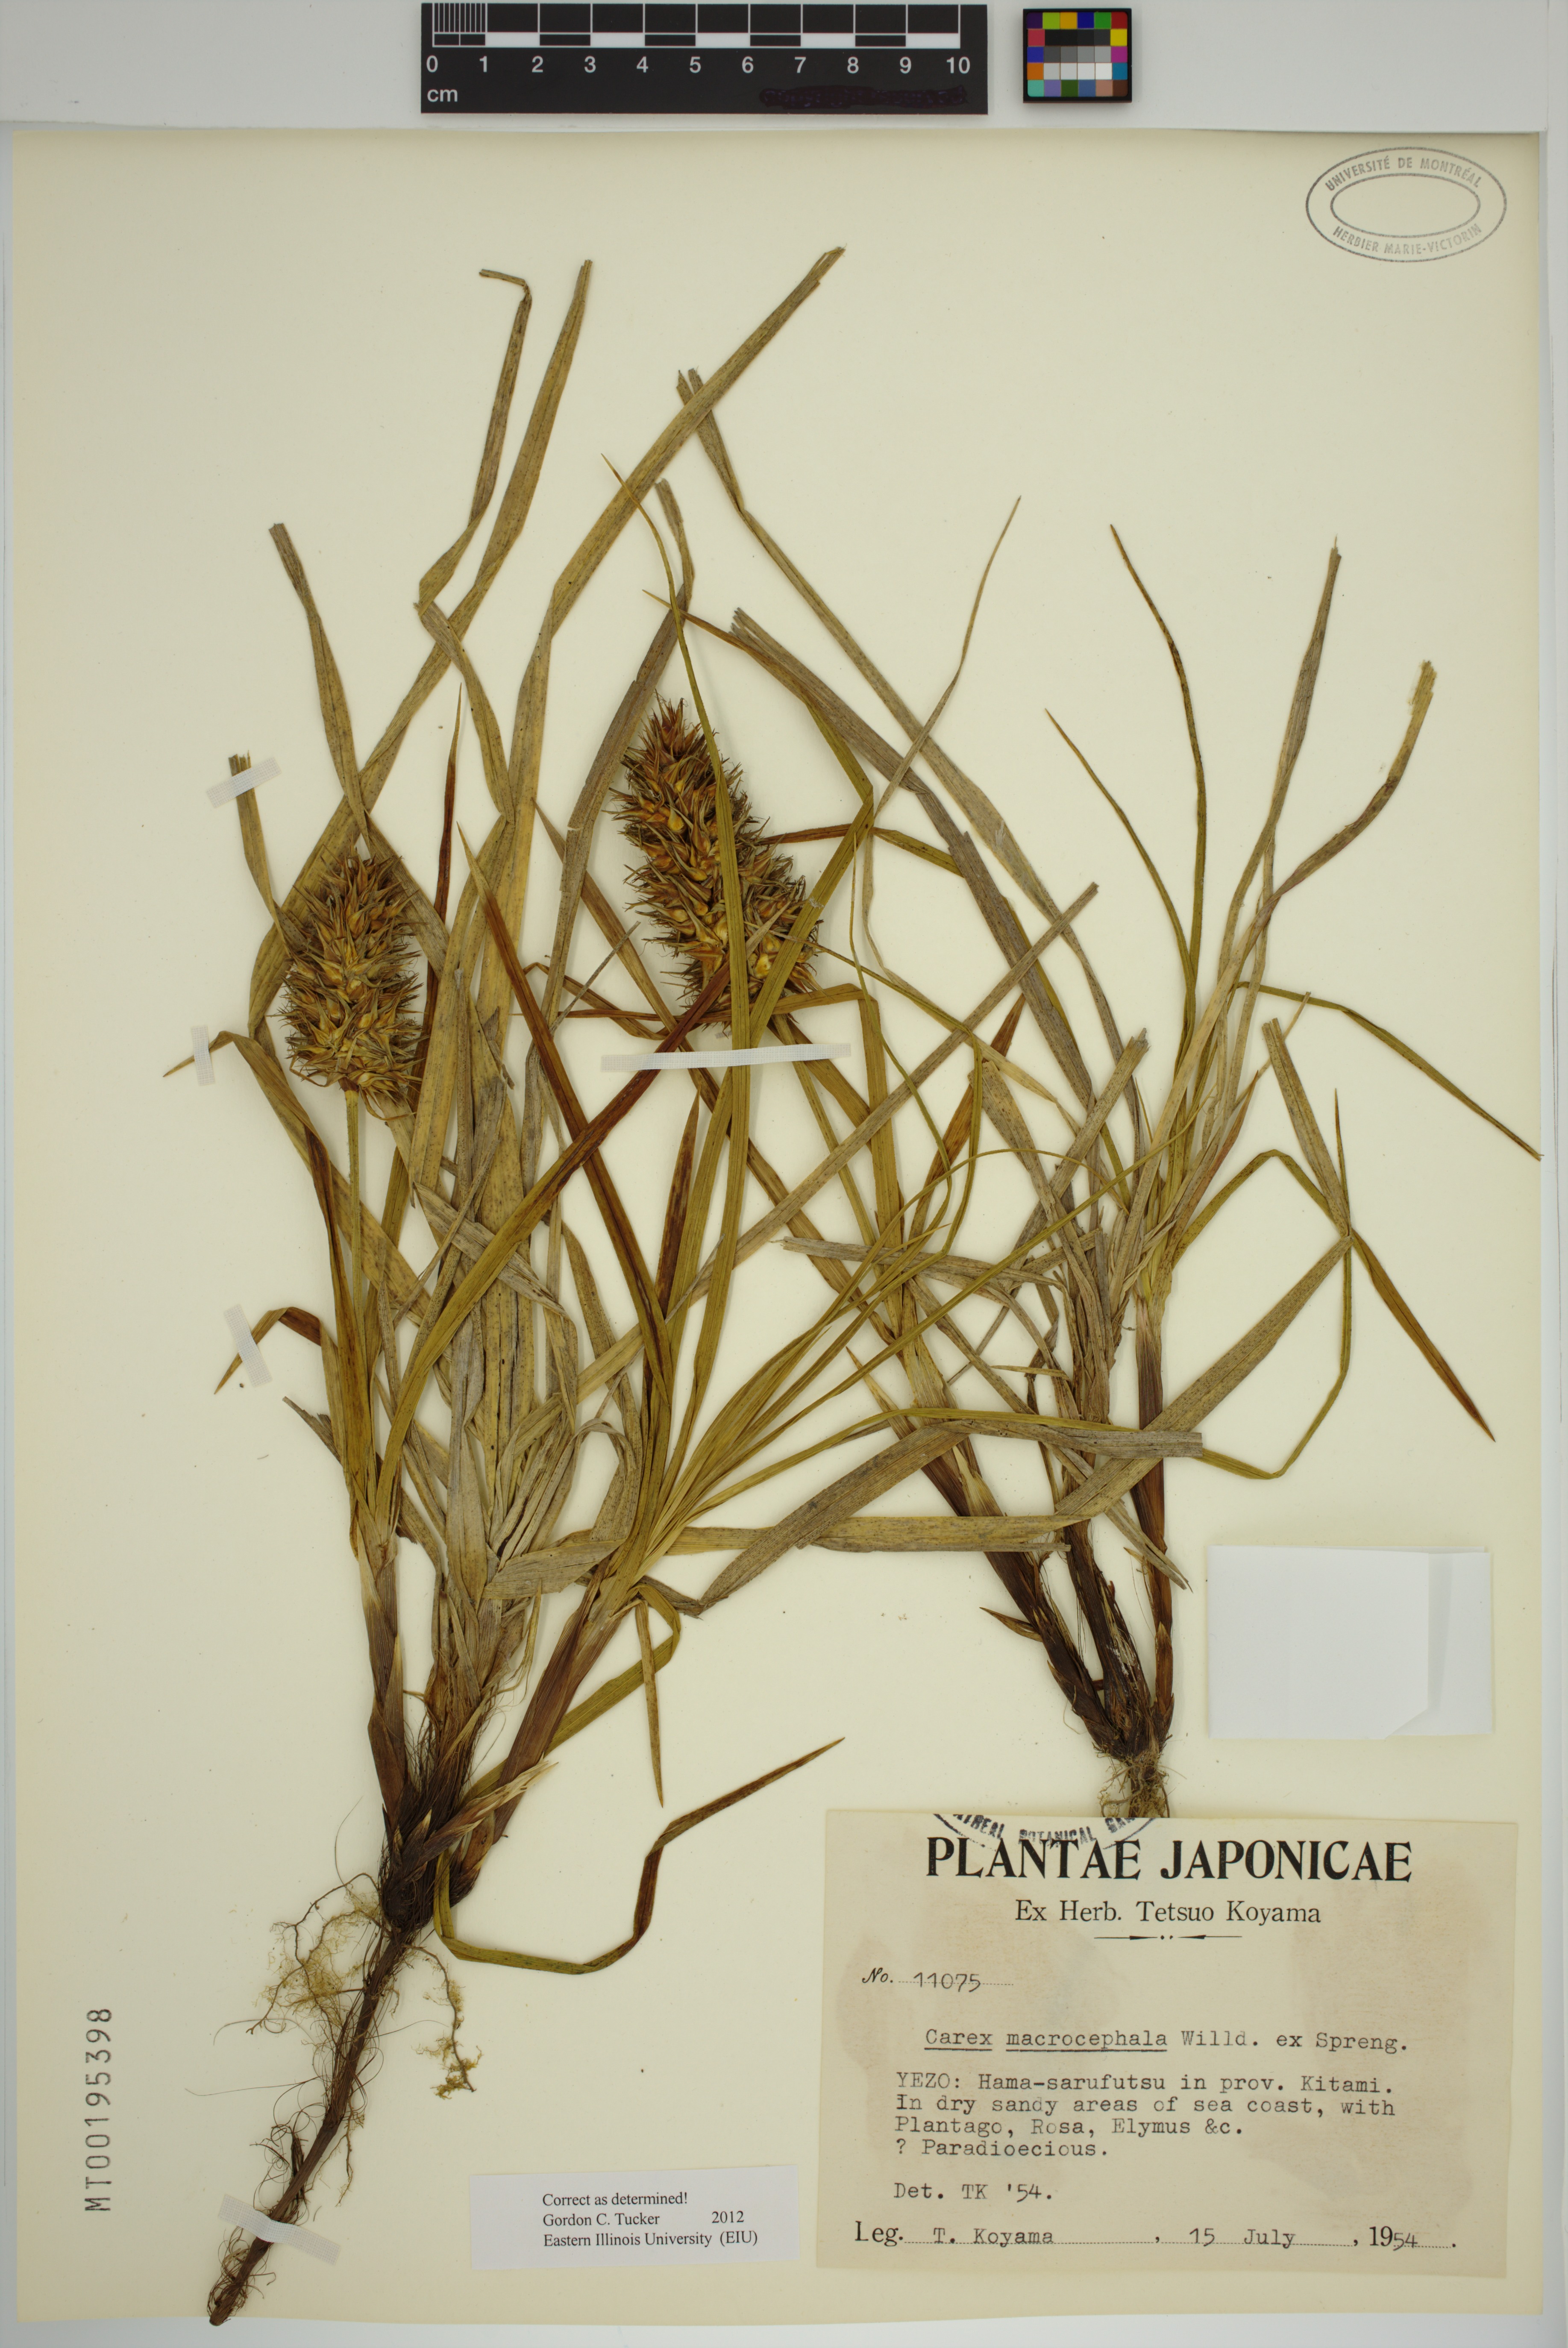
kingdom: Plantae
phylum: Tracheophyta
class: Liliopsida
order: Poales
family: Cyperaceae
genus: Carex
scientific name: Carex macrocephala
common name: Large-head sedge
